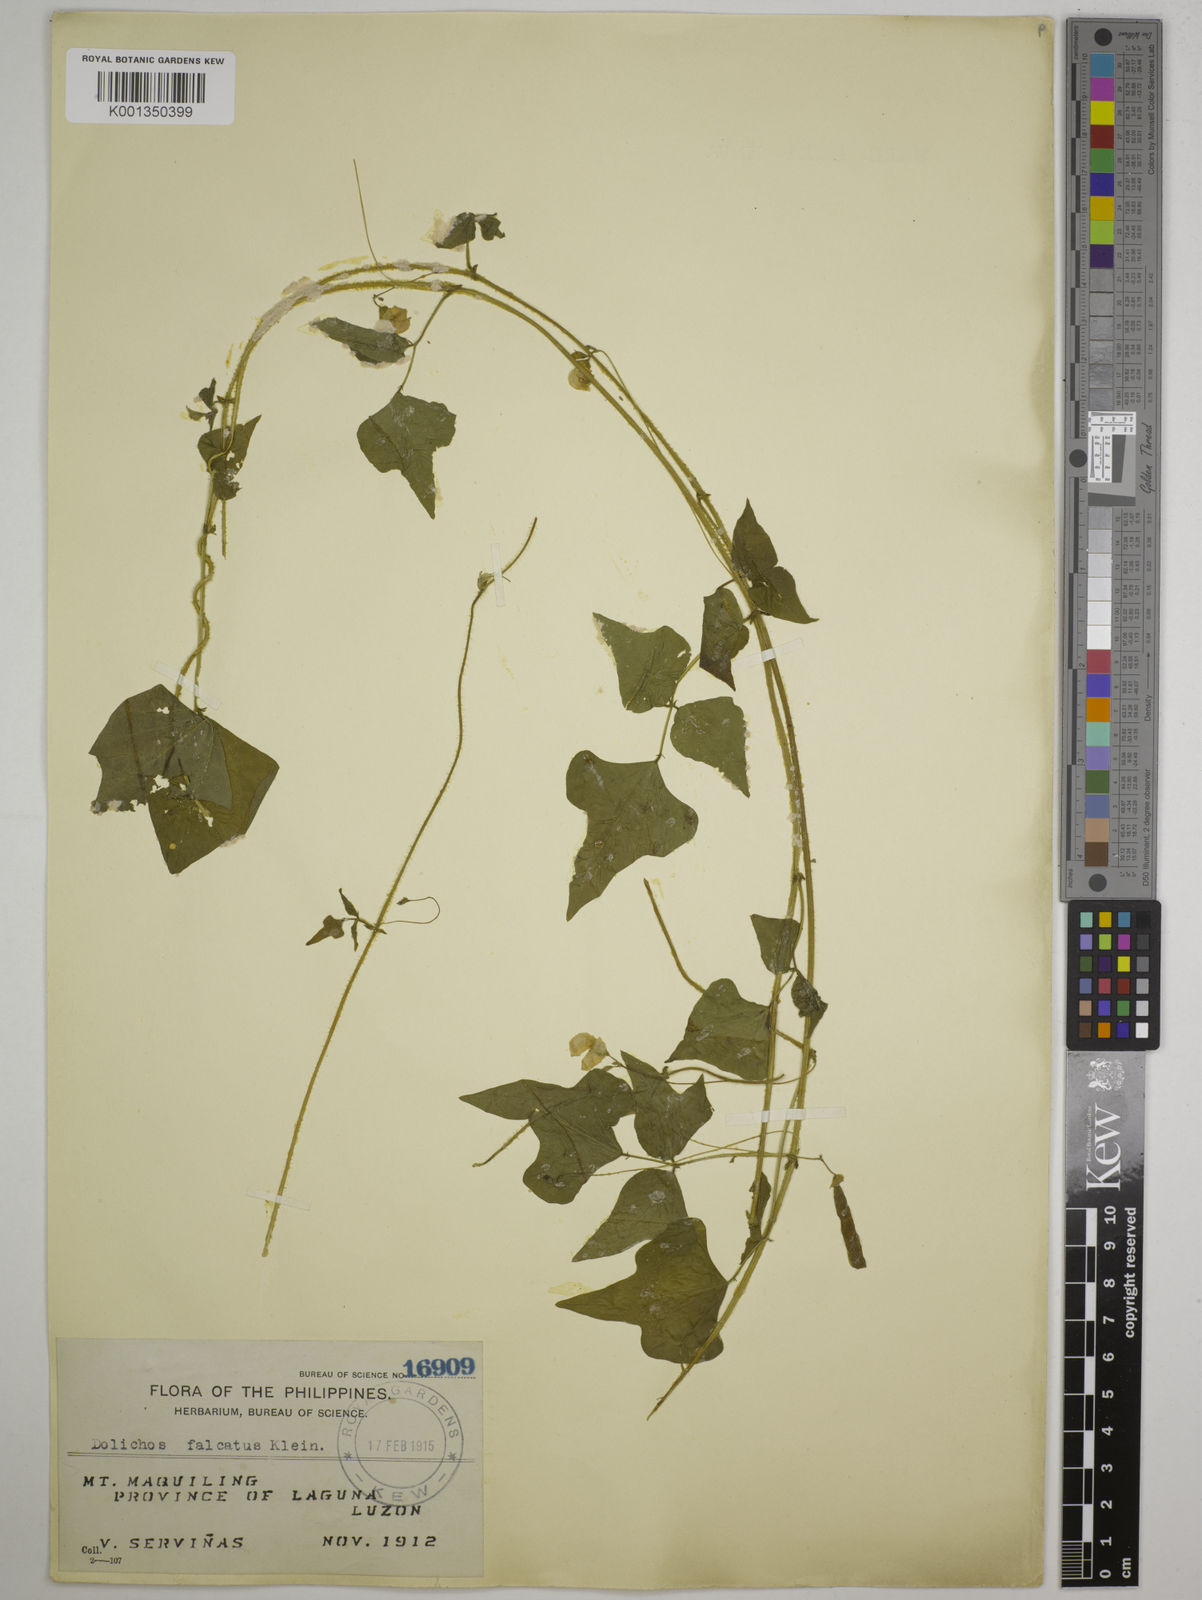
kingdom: Plantae
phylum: Tracheophyta
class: Magnoliopsida
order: Fabales
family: Fabaceae
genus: Dolichos
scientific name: Dolichos
